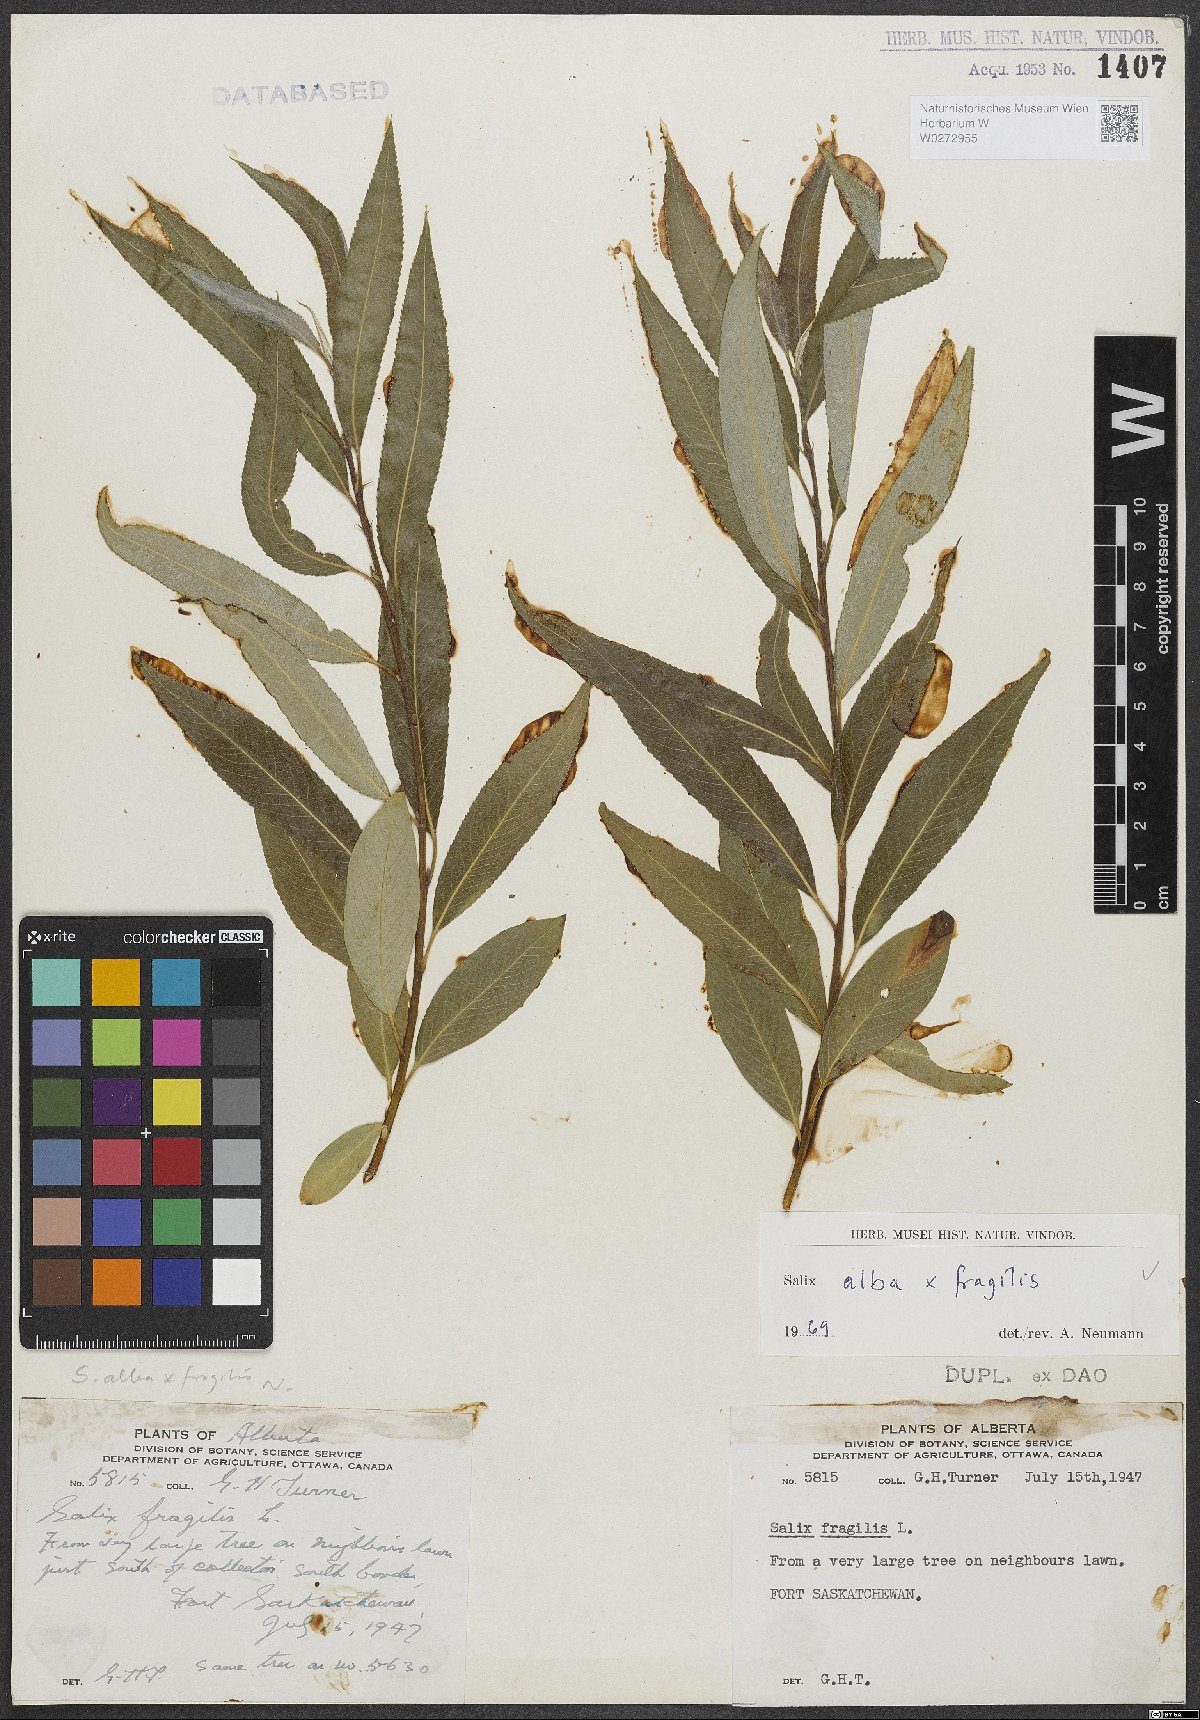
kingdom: Plantae
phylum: Tracheophyta
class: Magnoliopsida
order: Malpighiales
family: Salicaceae
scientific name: Salicaceae
